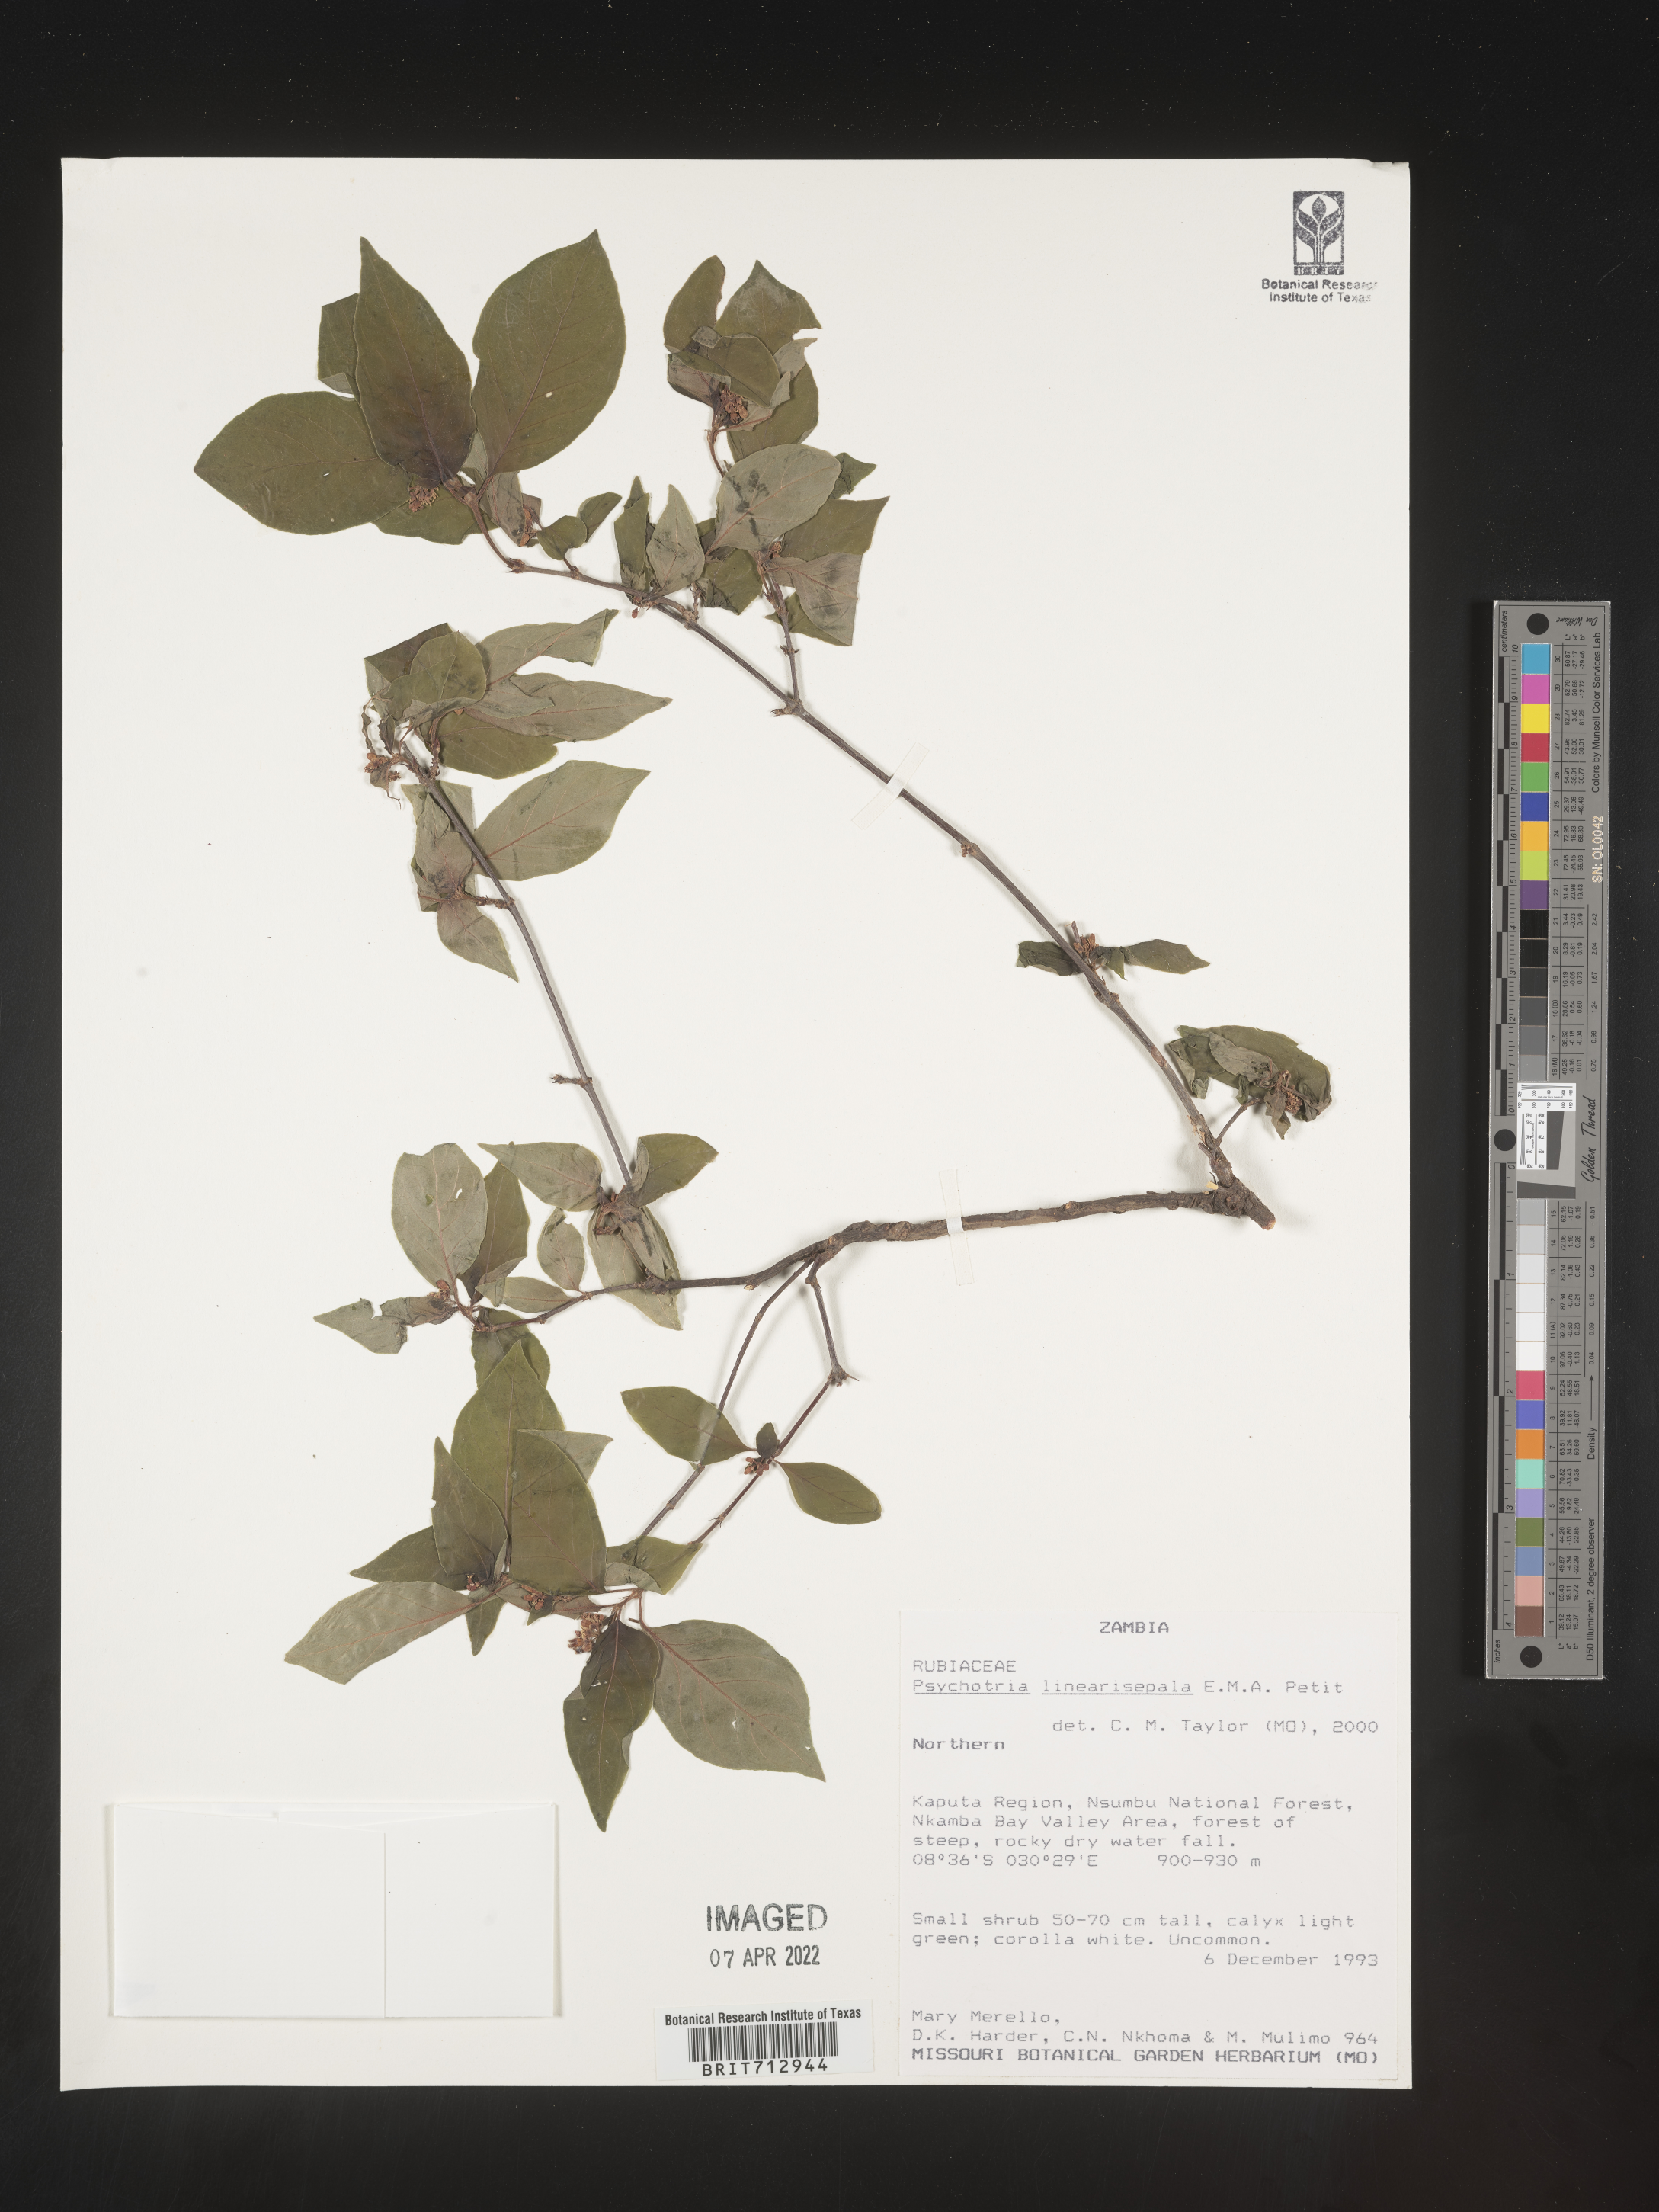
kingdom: Plantae
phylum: Tracheophyta
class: Magnoliopsida
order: Gentianales
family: Rubiaceae
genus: Psychotria
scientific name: Psychotria
